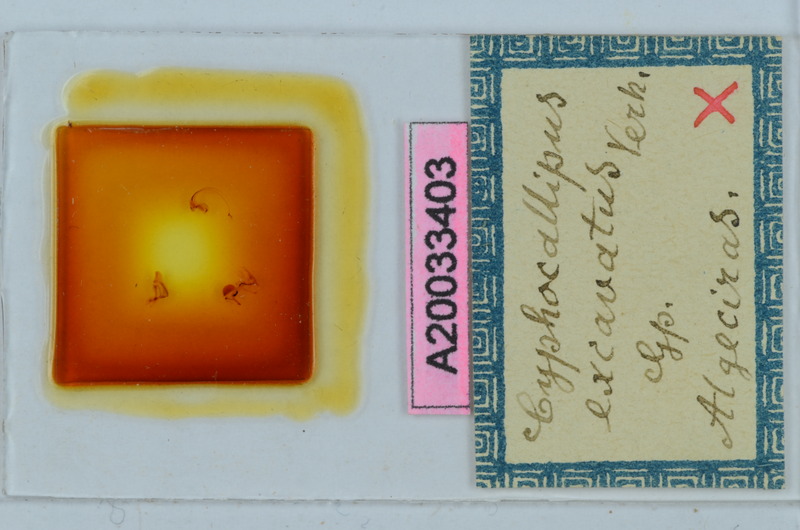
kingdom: Animalia
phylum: Arthropoda
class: Diplopoda
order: Callipodida
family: Dorypetalidae
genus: Cyphocallipus
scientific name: Cyphocallipus excavatus
